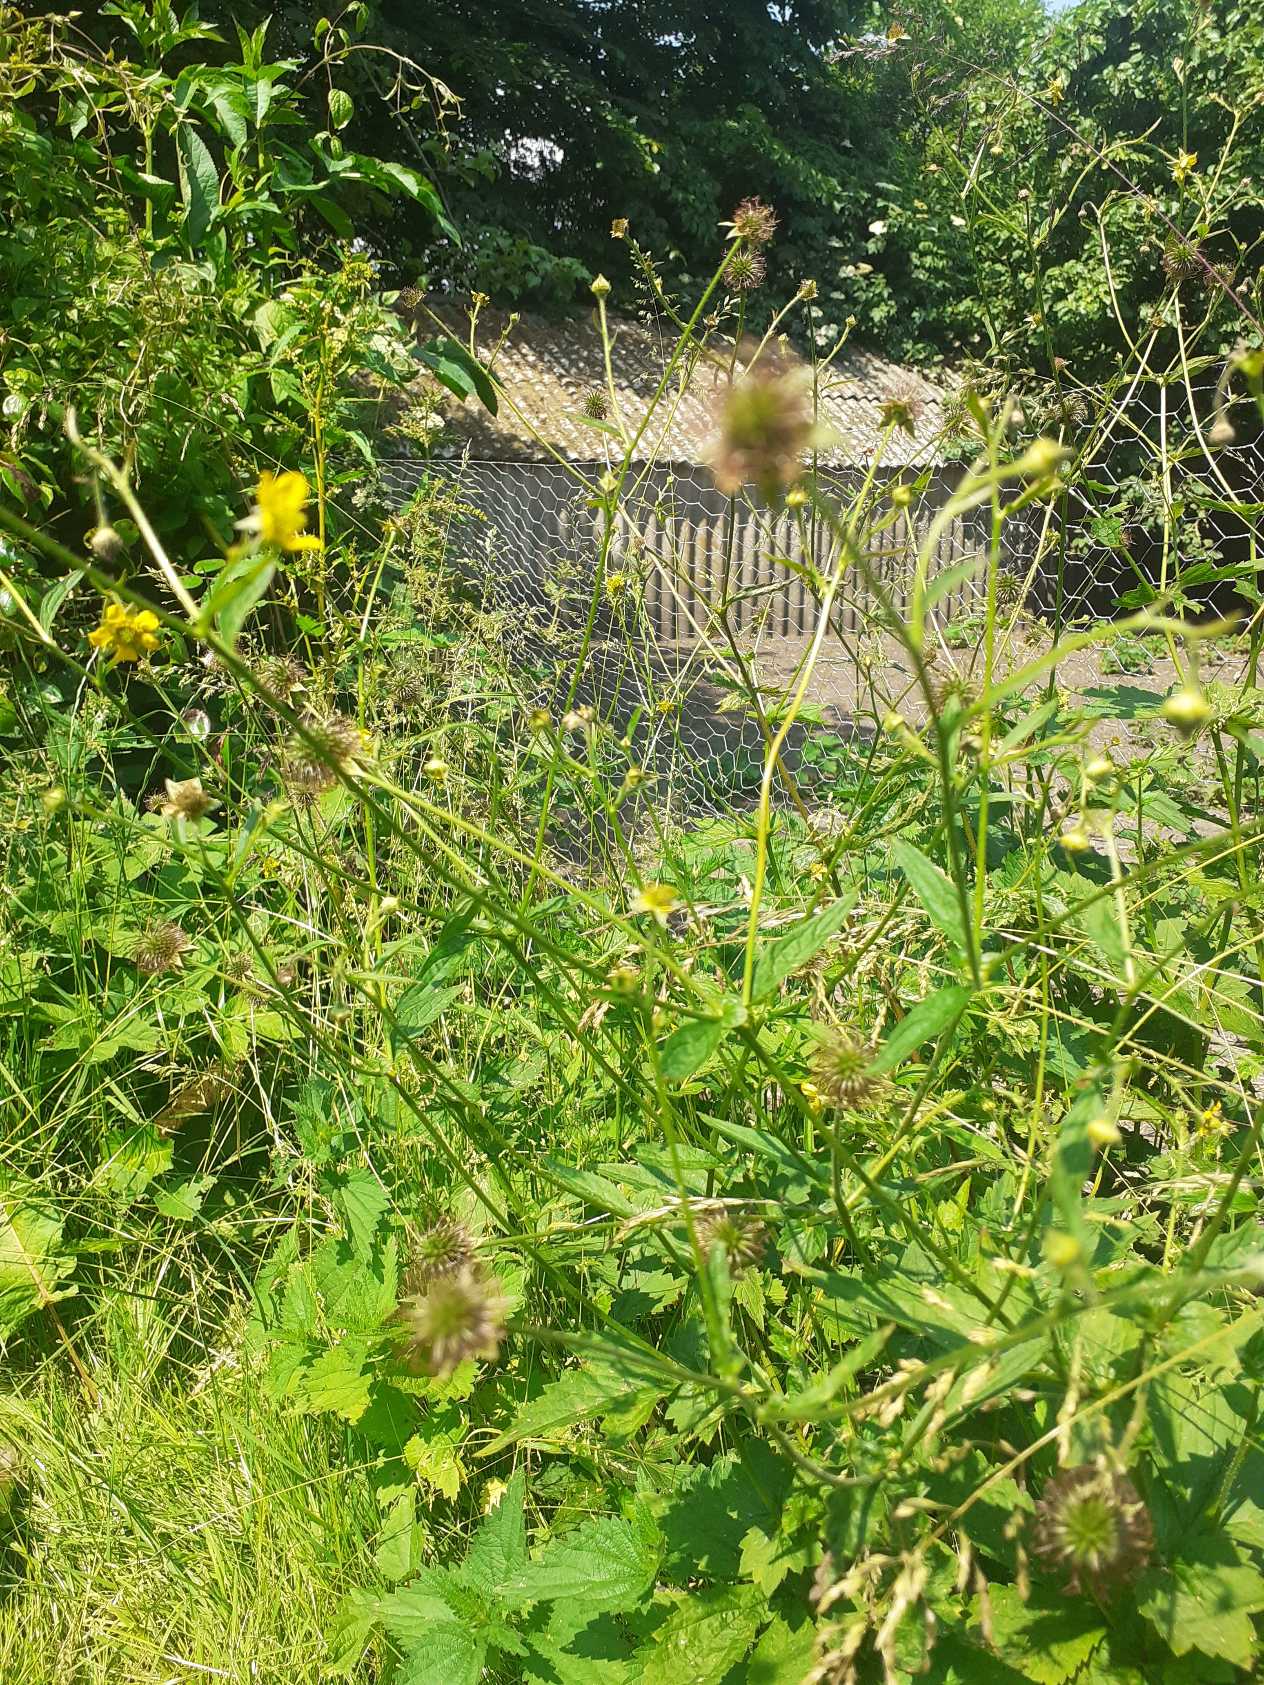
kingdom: Plantae
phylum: Tracheophyta
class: Magnoliopsida
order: Rosales
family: Rosaceae
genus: Geum
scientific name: Geum urbanum
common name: Feber-nellikerod
